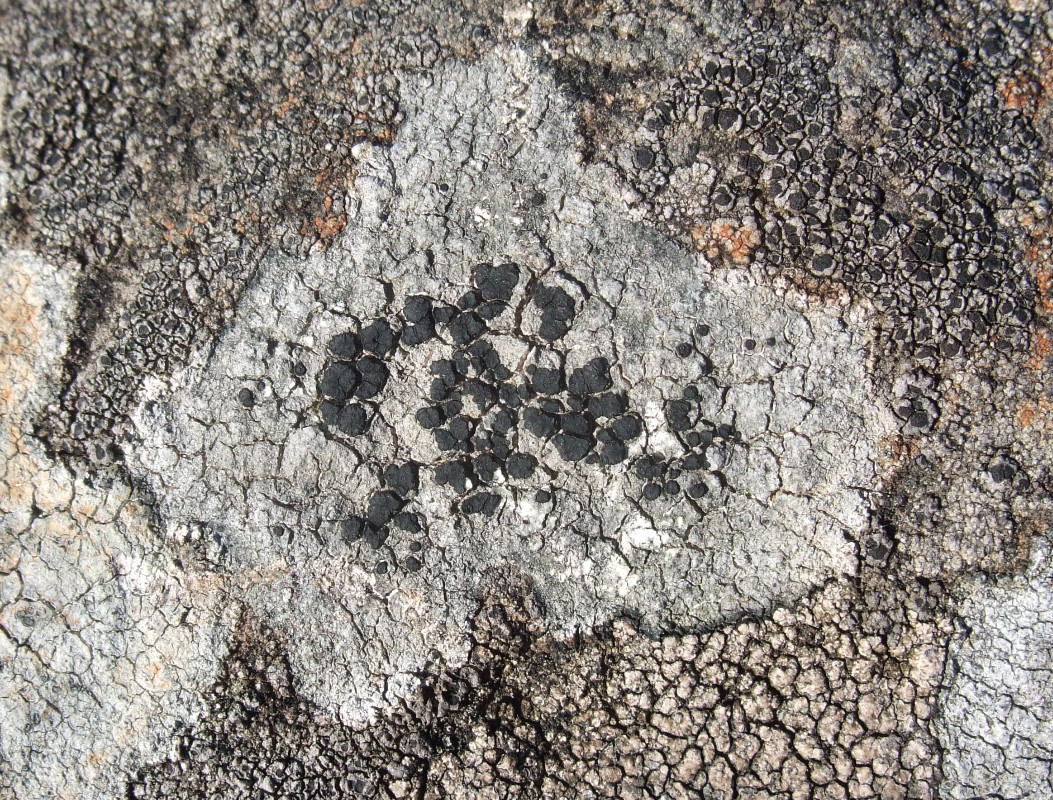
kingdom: Fungi
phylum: Ascomycota
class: Lecanoromycetes
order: Lecideales
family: Lecideaceae
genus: Porpidia
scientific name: Porpidia macrocarpa
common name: almindelig bredskivelav
